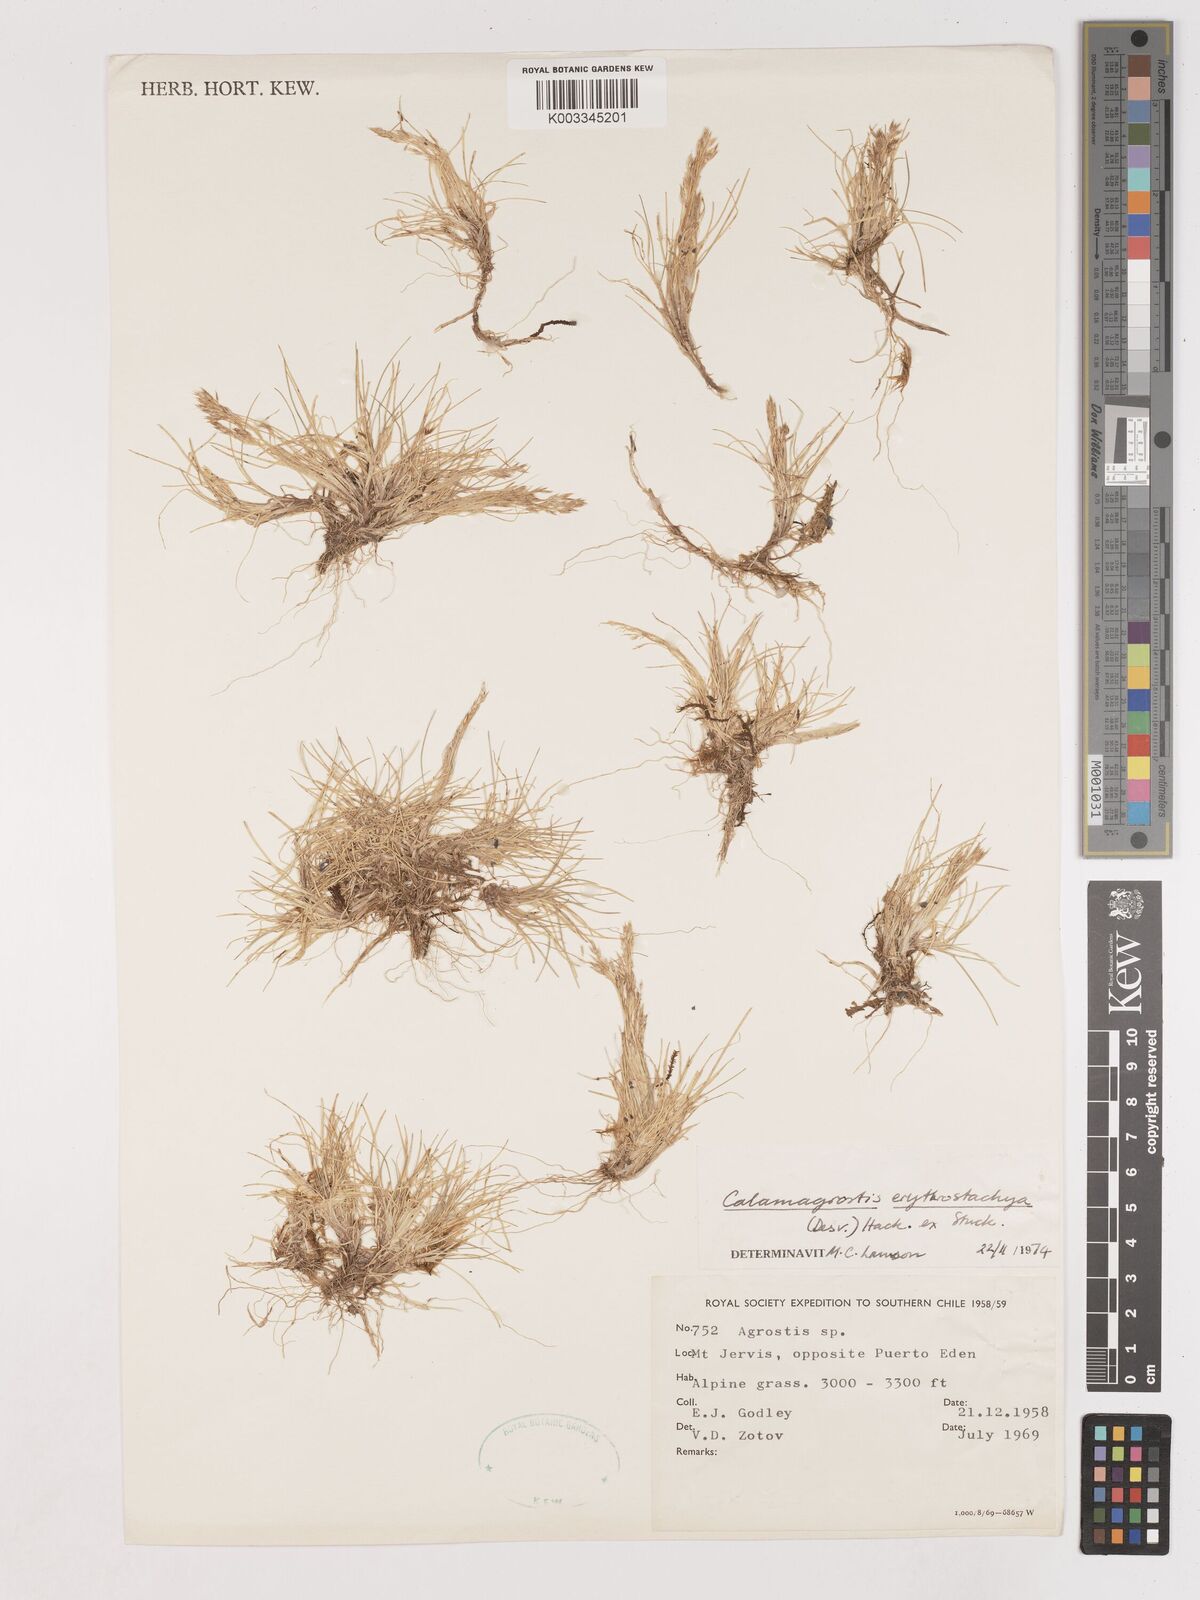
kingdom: Plantae
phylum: Tracheophyta
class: Liliopsida
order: Poales
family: Poaceae
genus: Calamagrostis
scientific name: Calamagrostis
